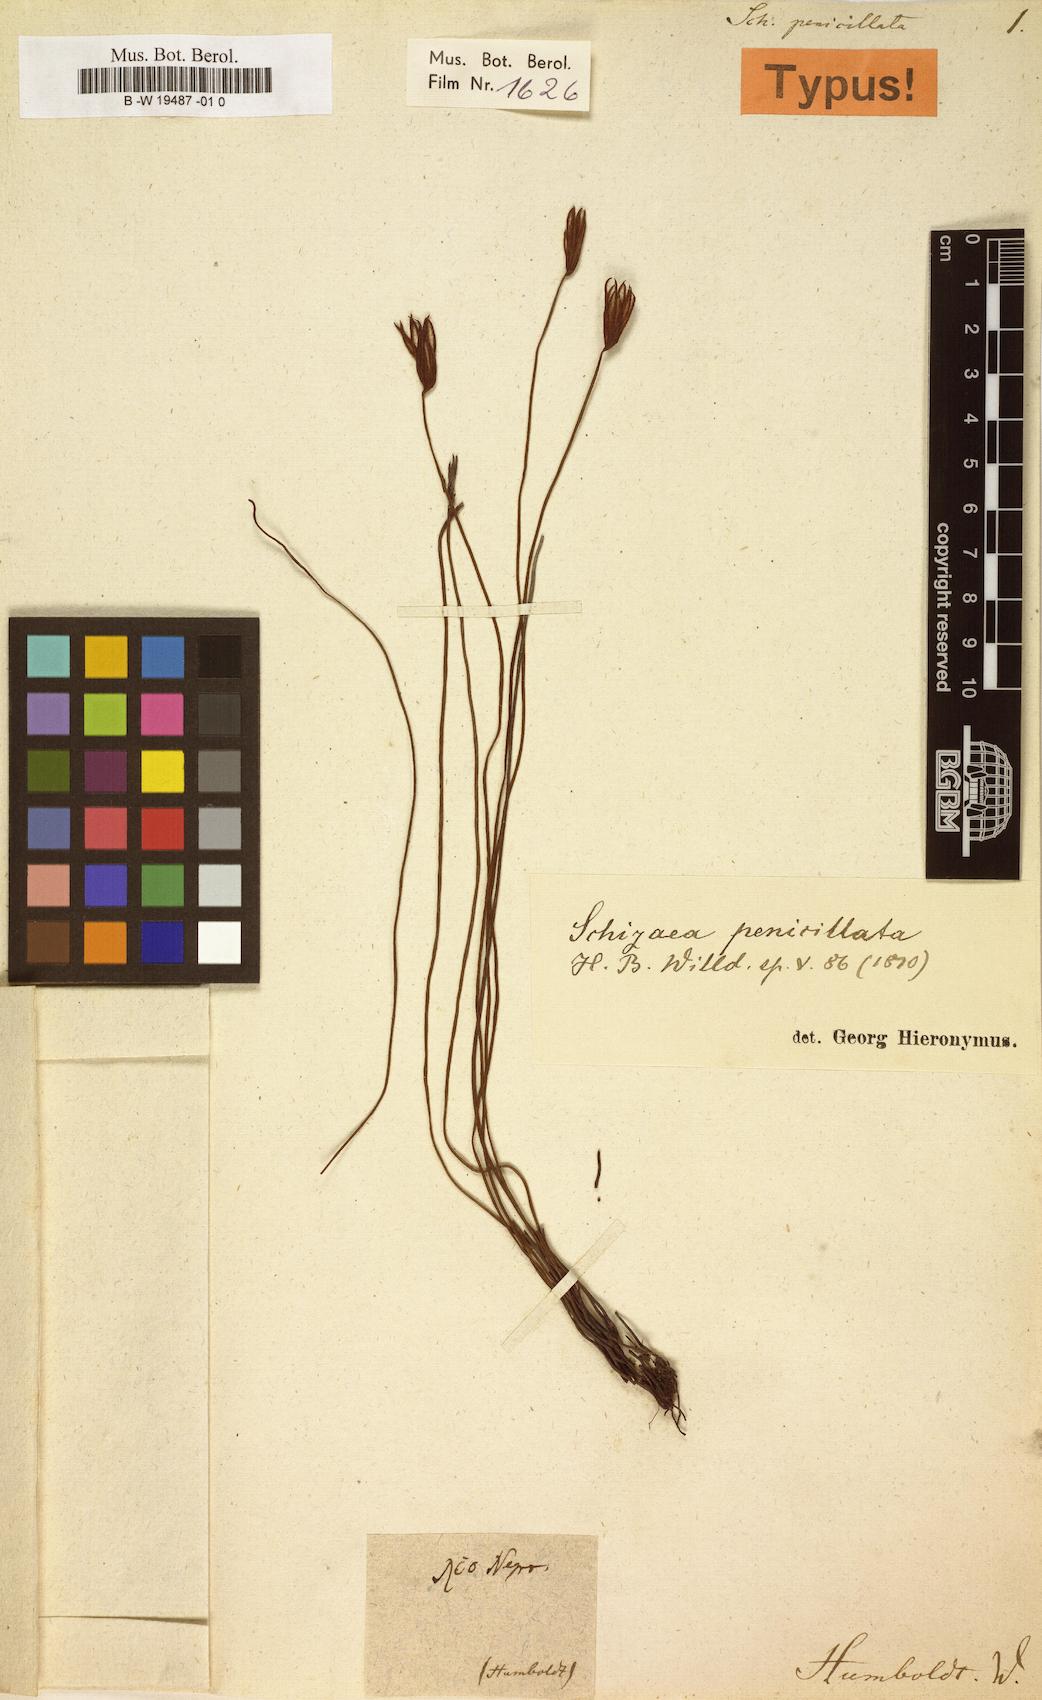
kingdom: Plantae
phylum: Tracheophyta
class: Polypodiopsida
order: Schizaeales
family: Schizaeaceae
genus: Actinostachys
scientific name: Actinostachys pennula
